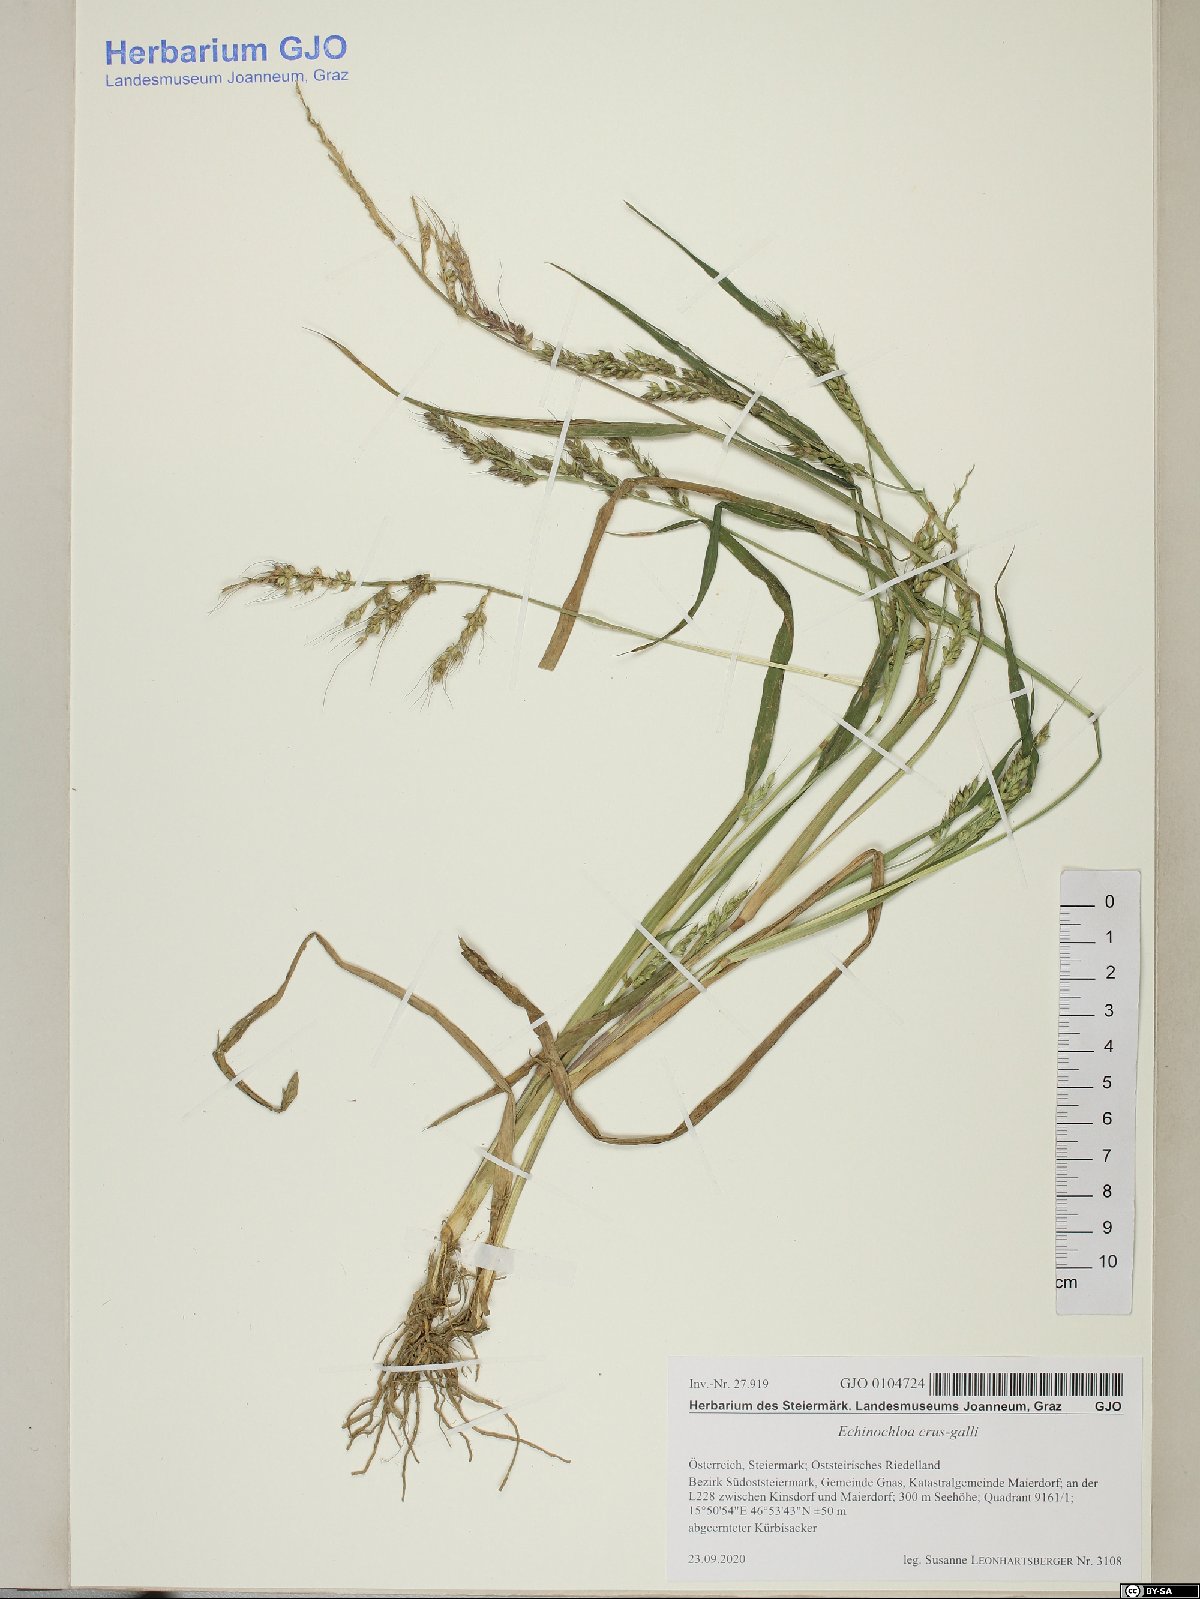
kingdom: Plantae
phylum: Tracheophyta
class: Liliopsida
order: Poales
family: Poaceae
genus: Echinochloa
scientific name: Echinochloa crus-galli
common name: Cockspur
